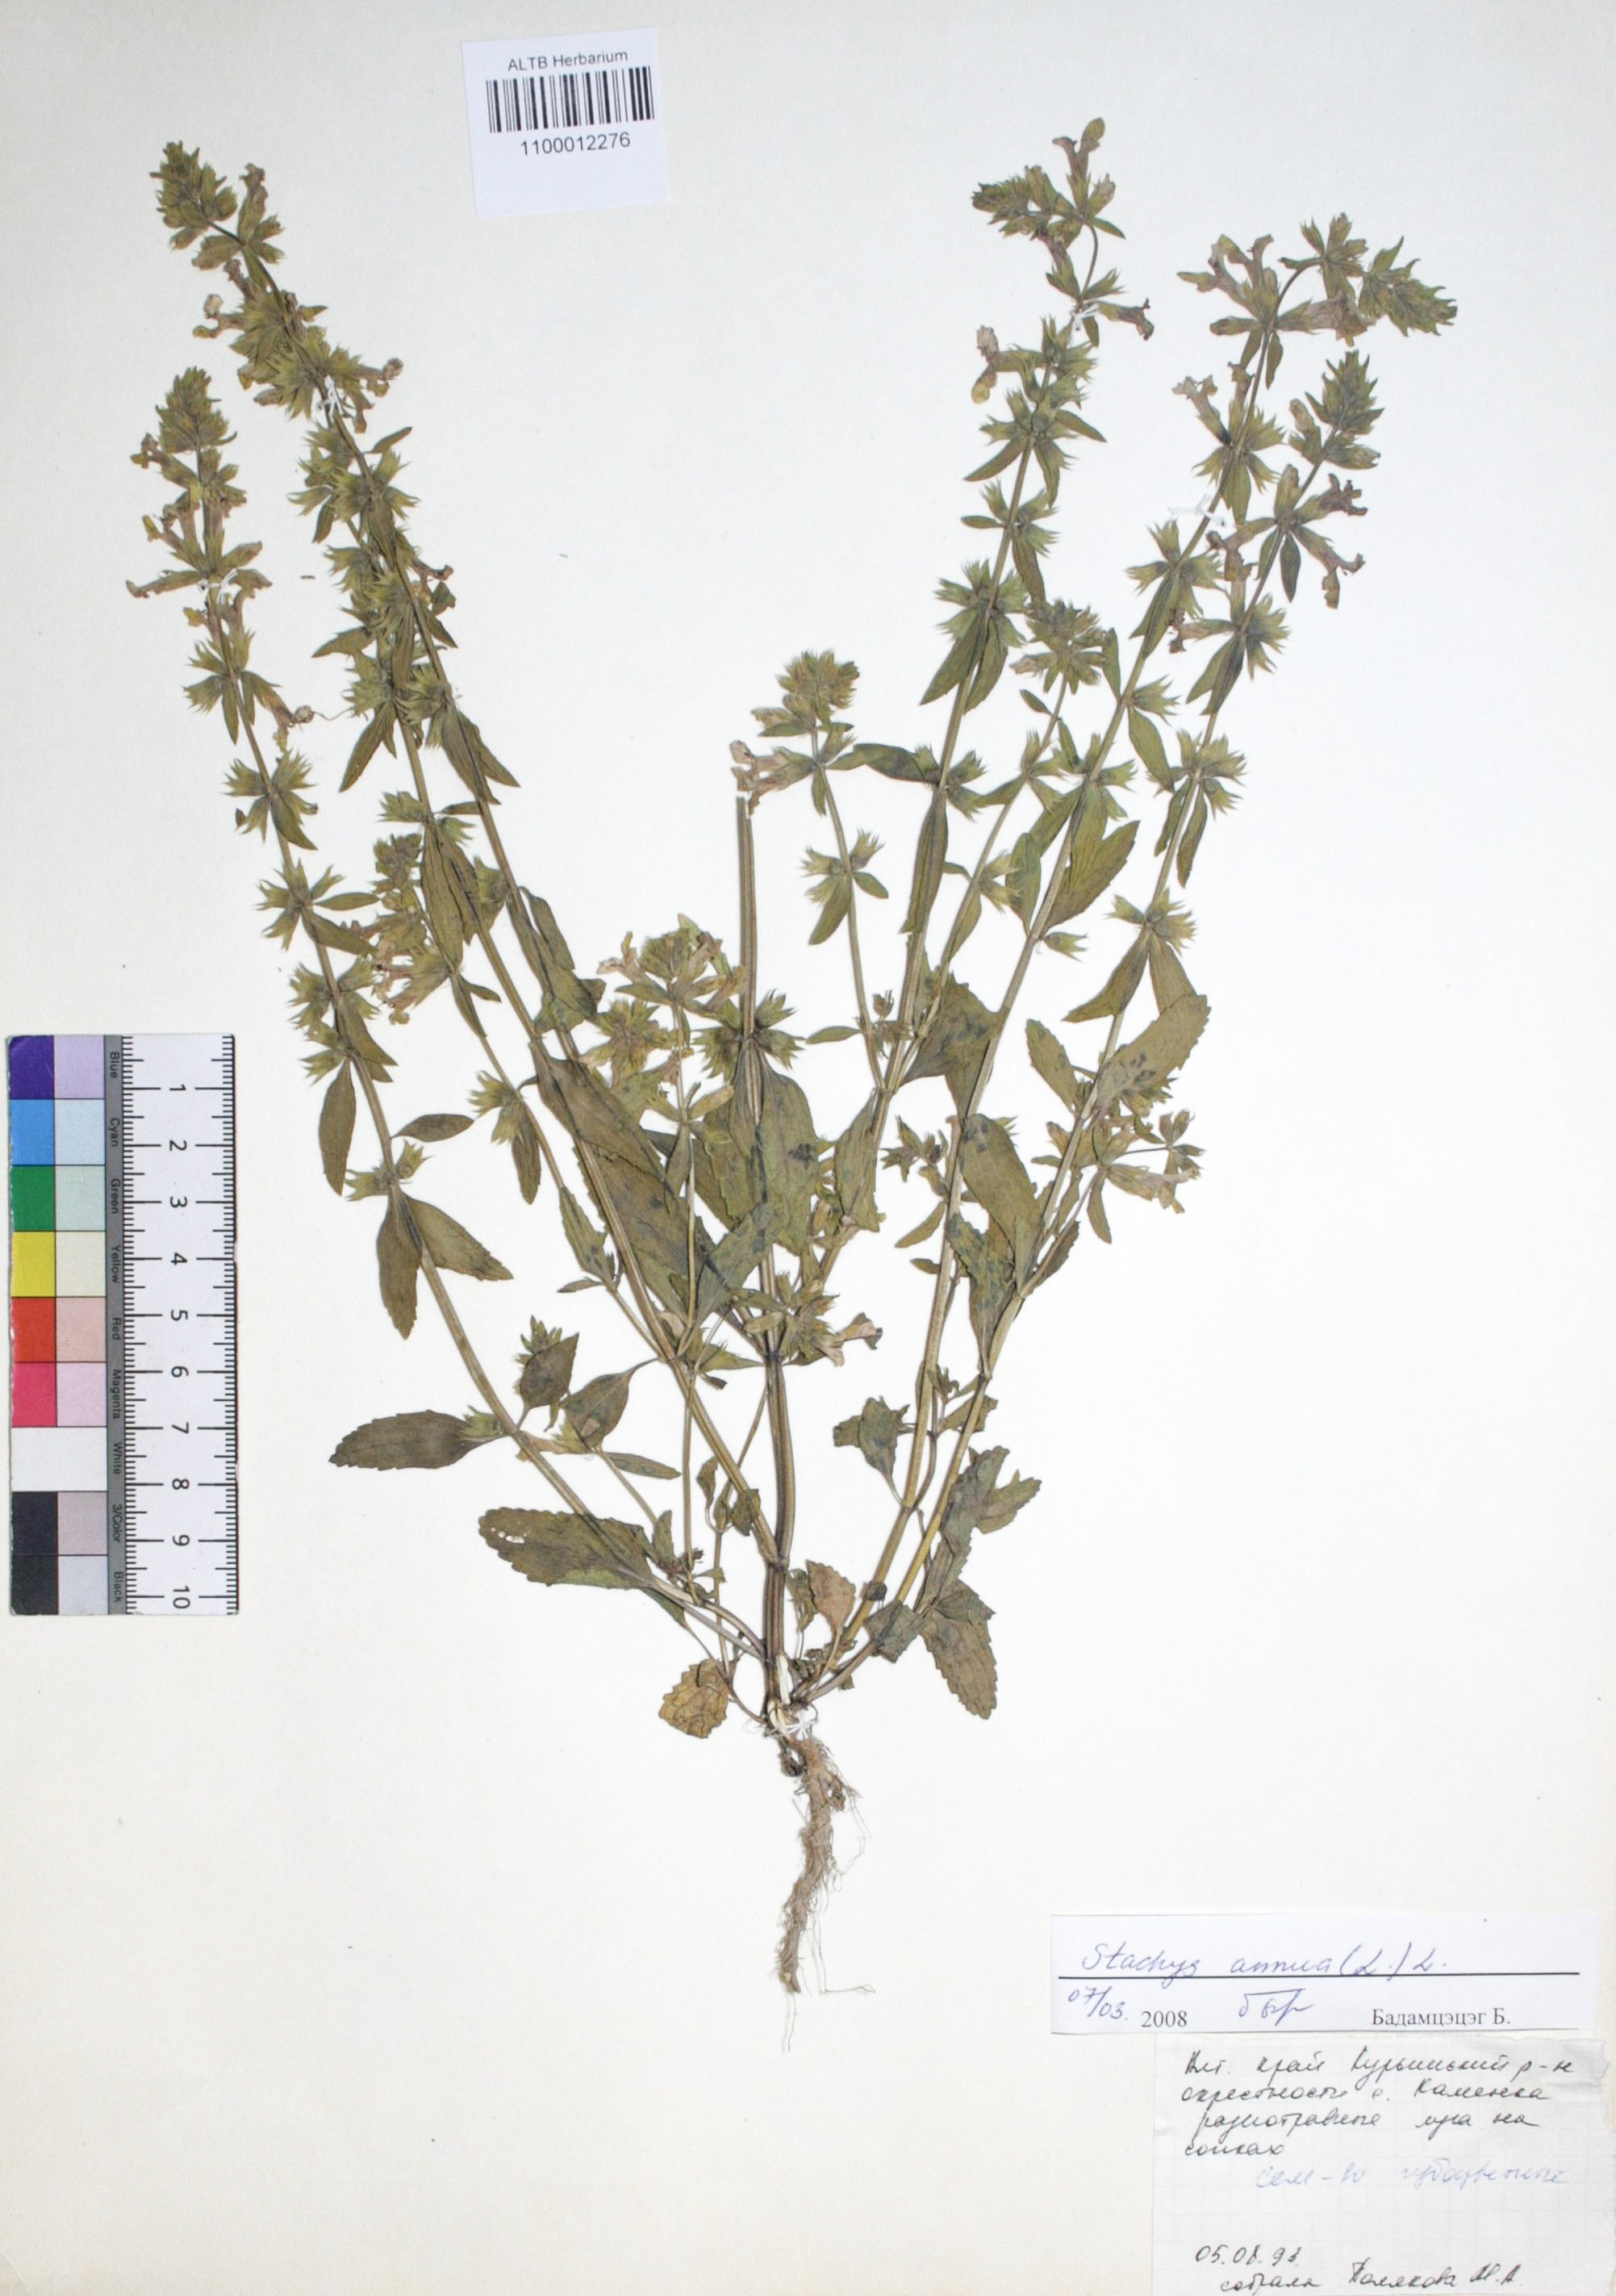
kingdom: Plantae
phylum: Tracheophyta
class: Magnoliopsida
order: Lamiales
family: Lamiaceae
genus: Stachys
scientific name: Stachys annua
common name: Annual yellow-woundwort
